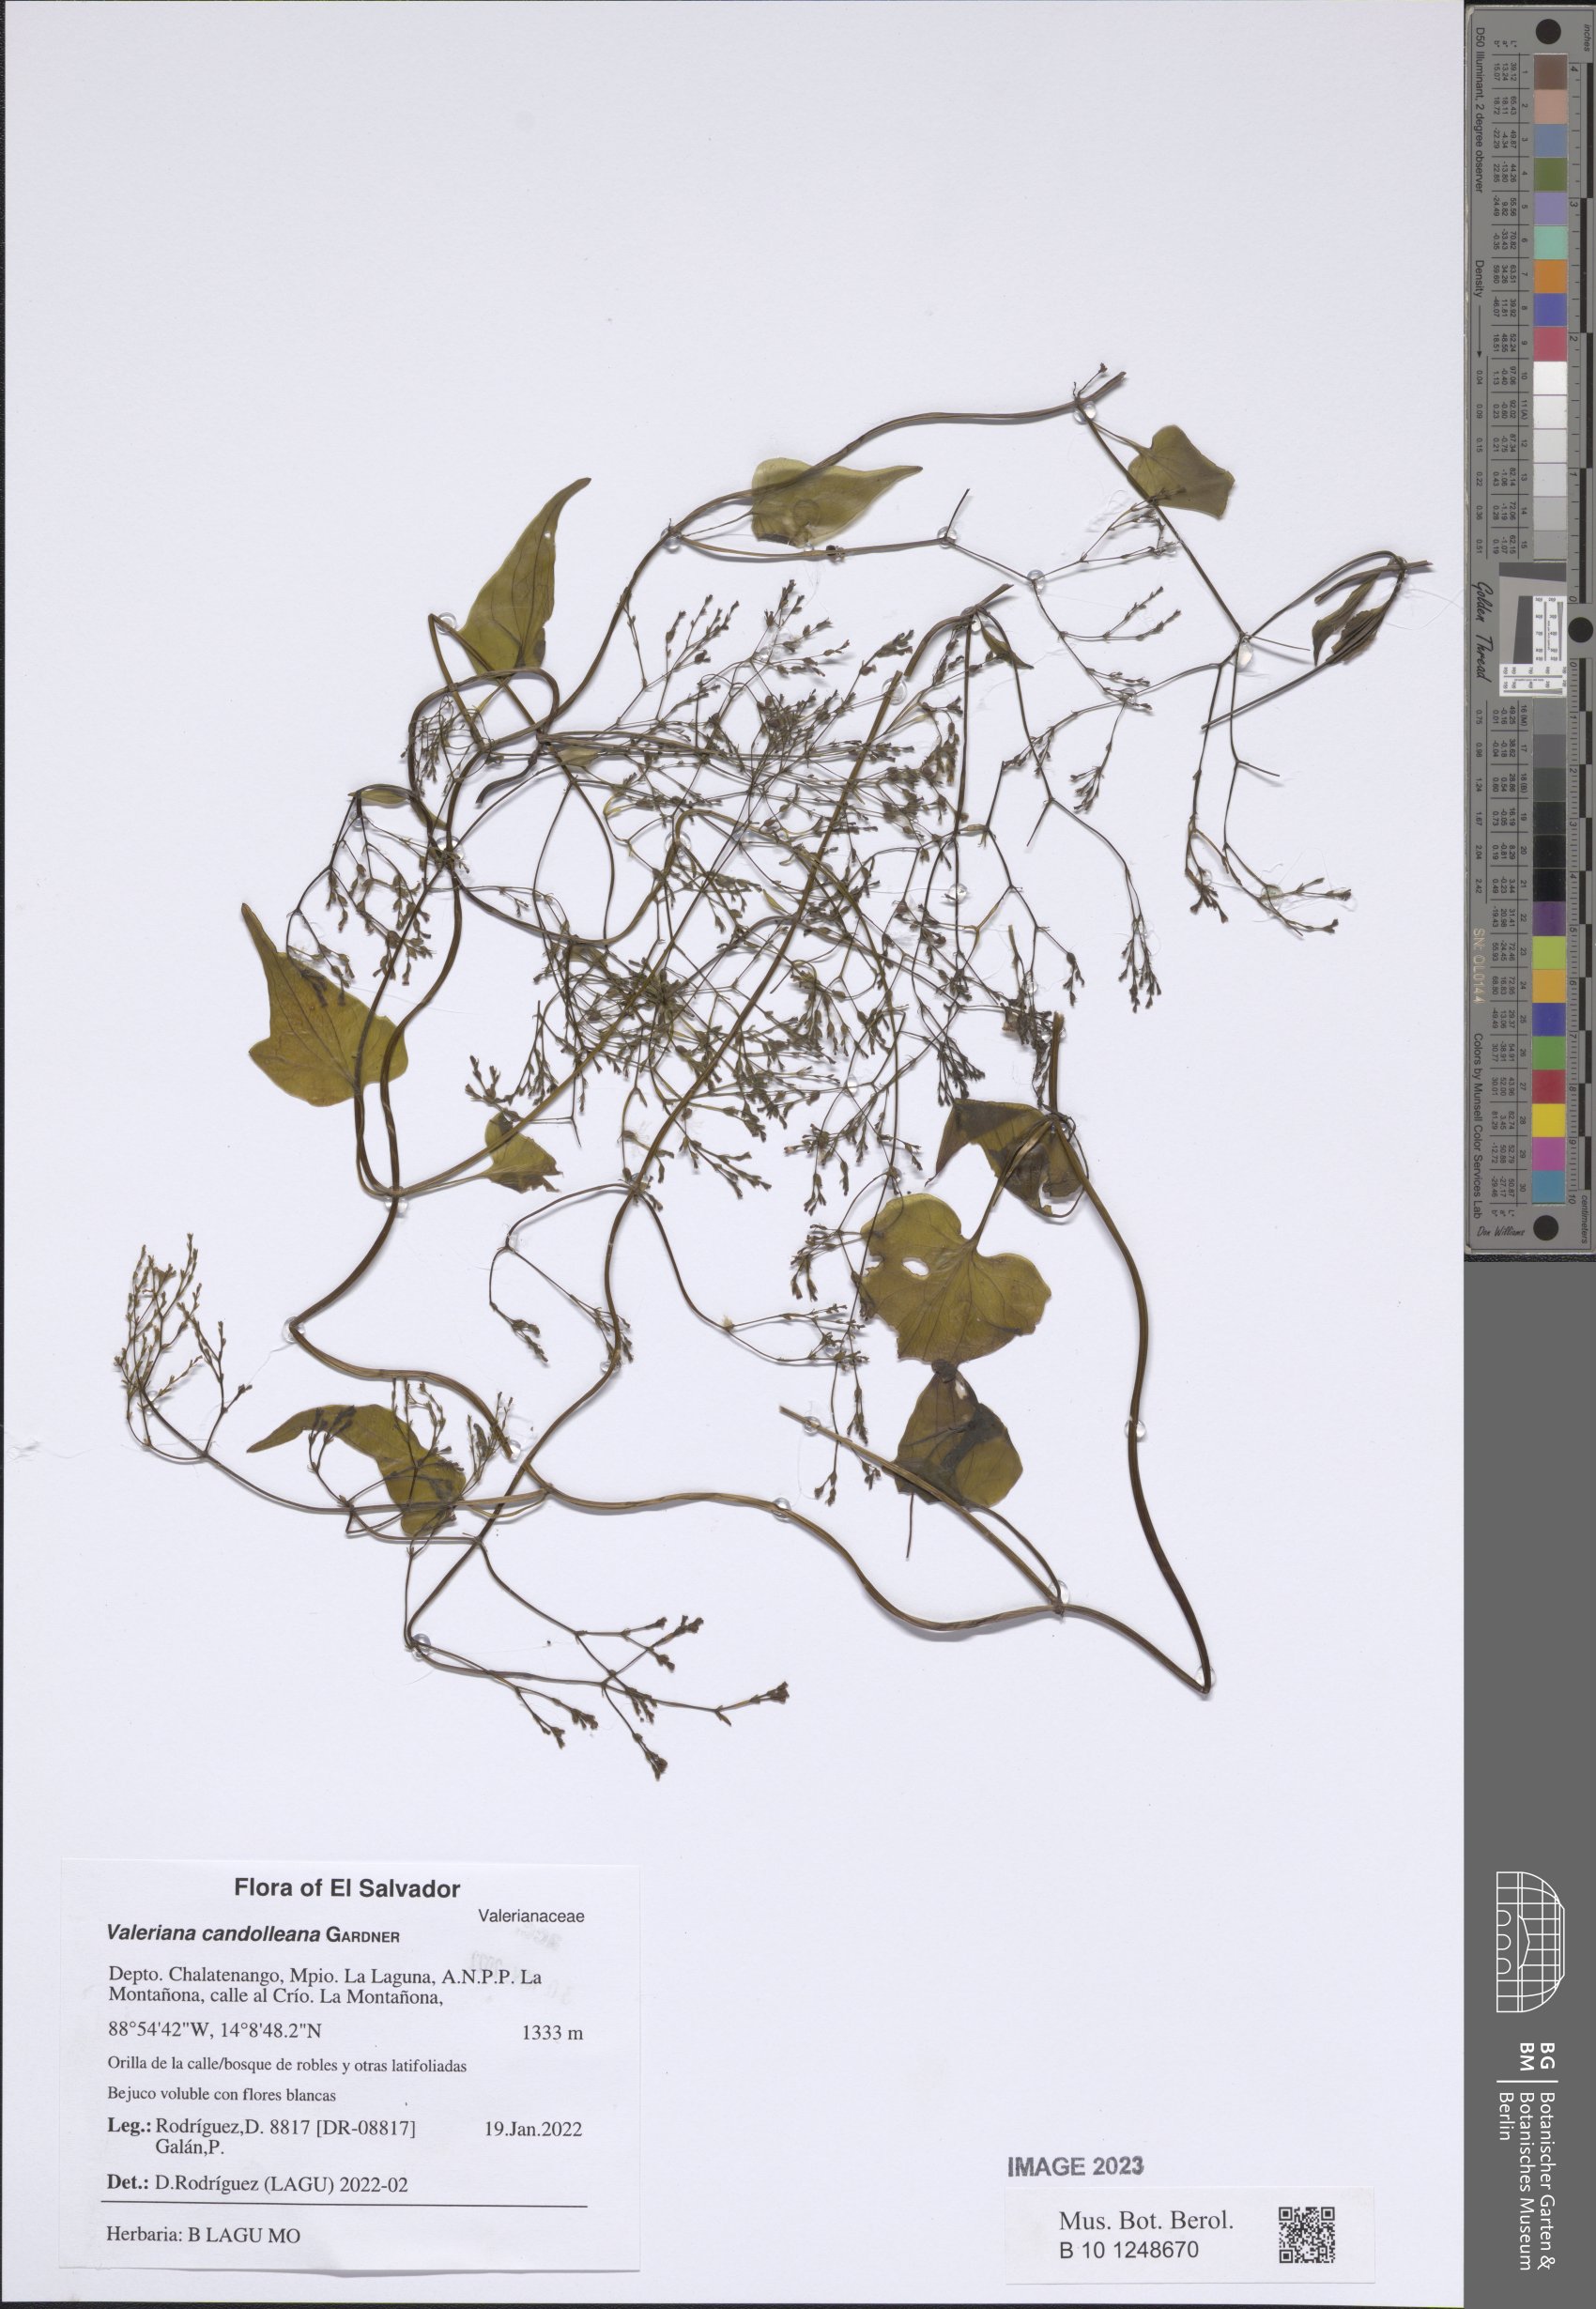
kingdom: Plantae
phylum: Tracheophyta
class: Magnoliopsida
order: Dipsacales
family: Caprifoliaceae
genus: Valeriana
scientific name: Valeriana candolleana
